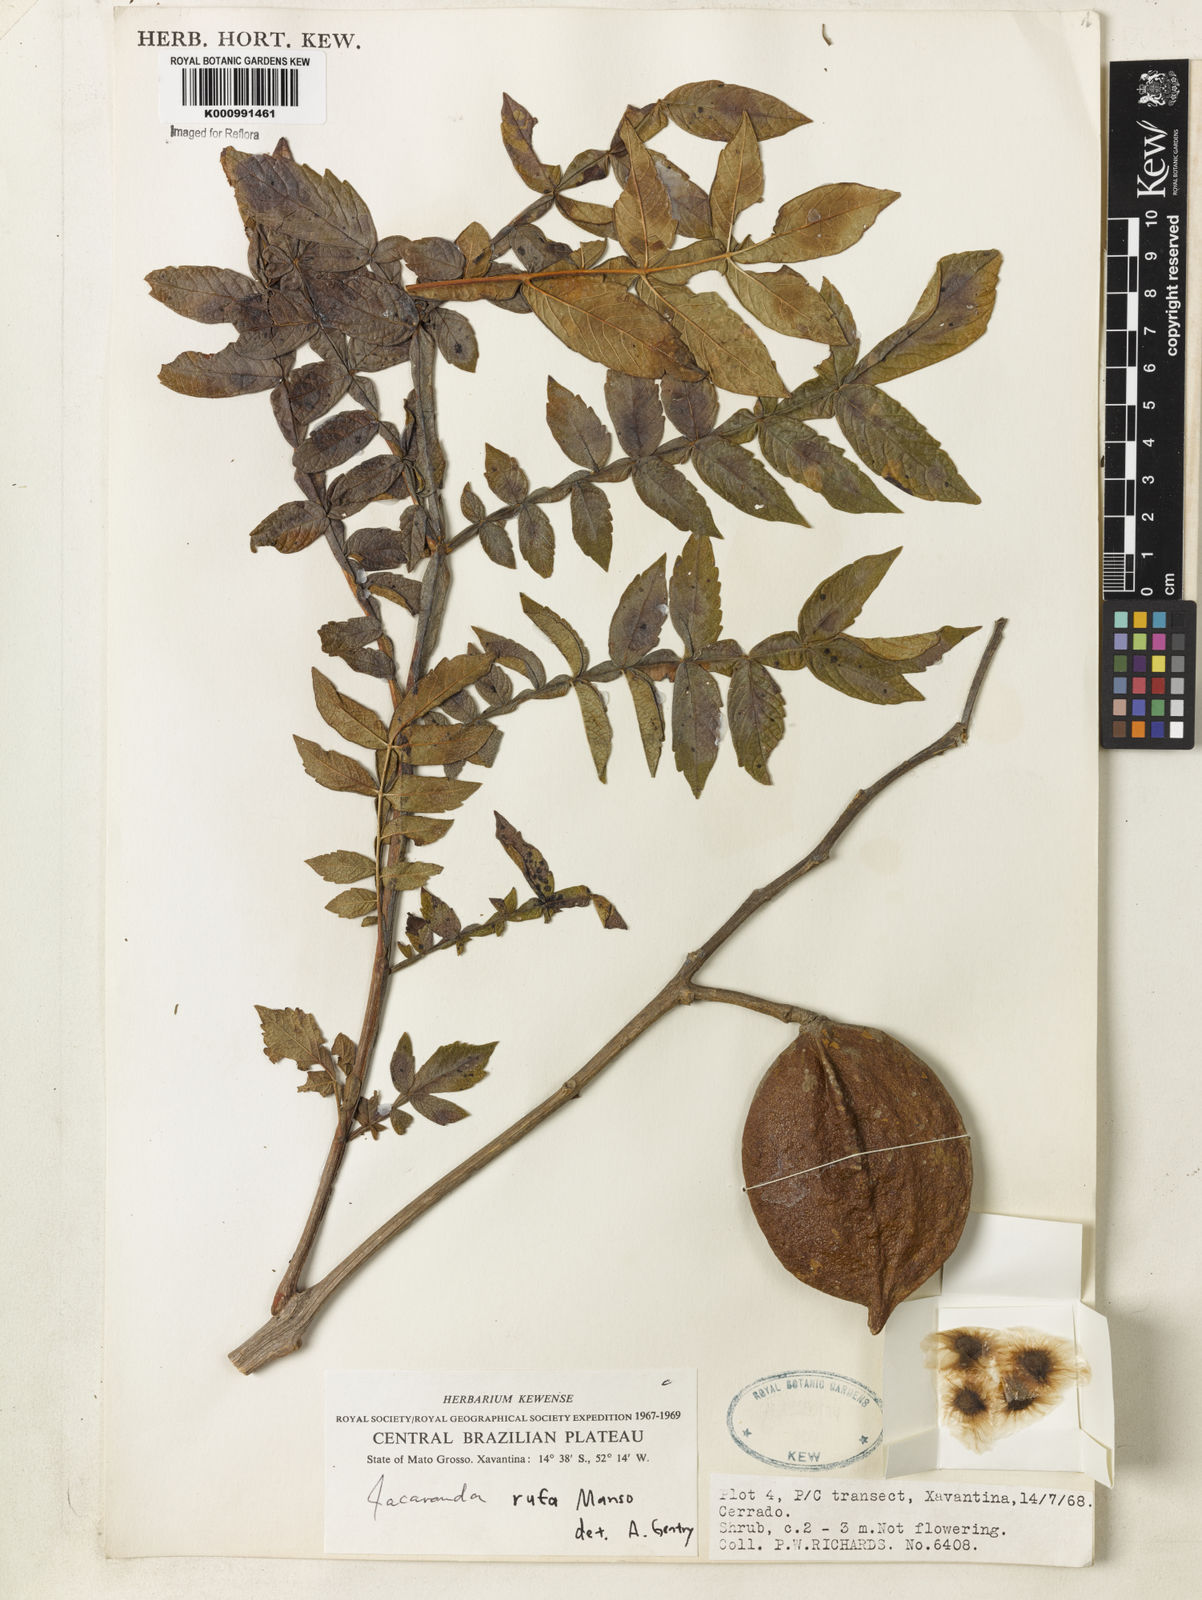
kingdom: Plantae
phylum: Tracheophyta
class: Magnoliopsida
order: Lamiales
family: Bignoniaceae
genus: Jacaranda
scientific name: Jacaranda rufa
